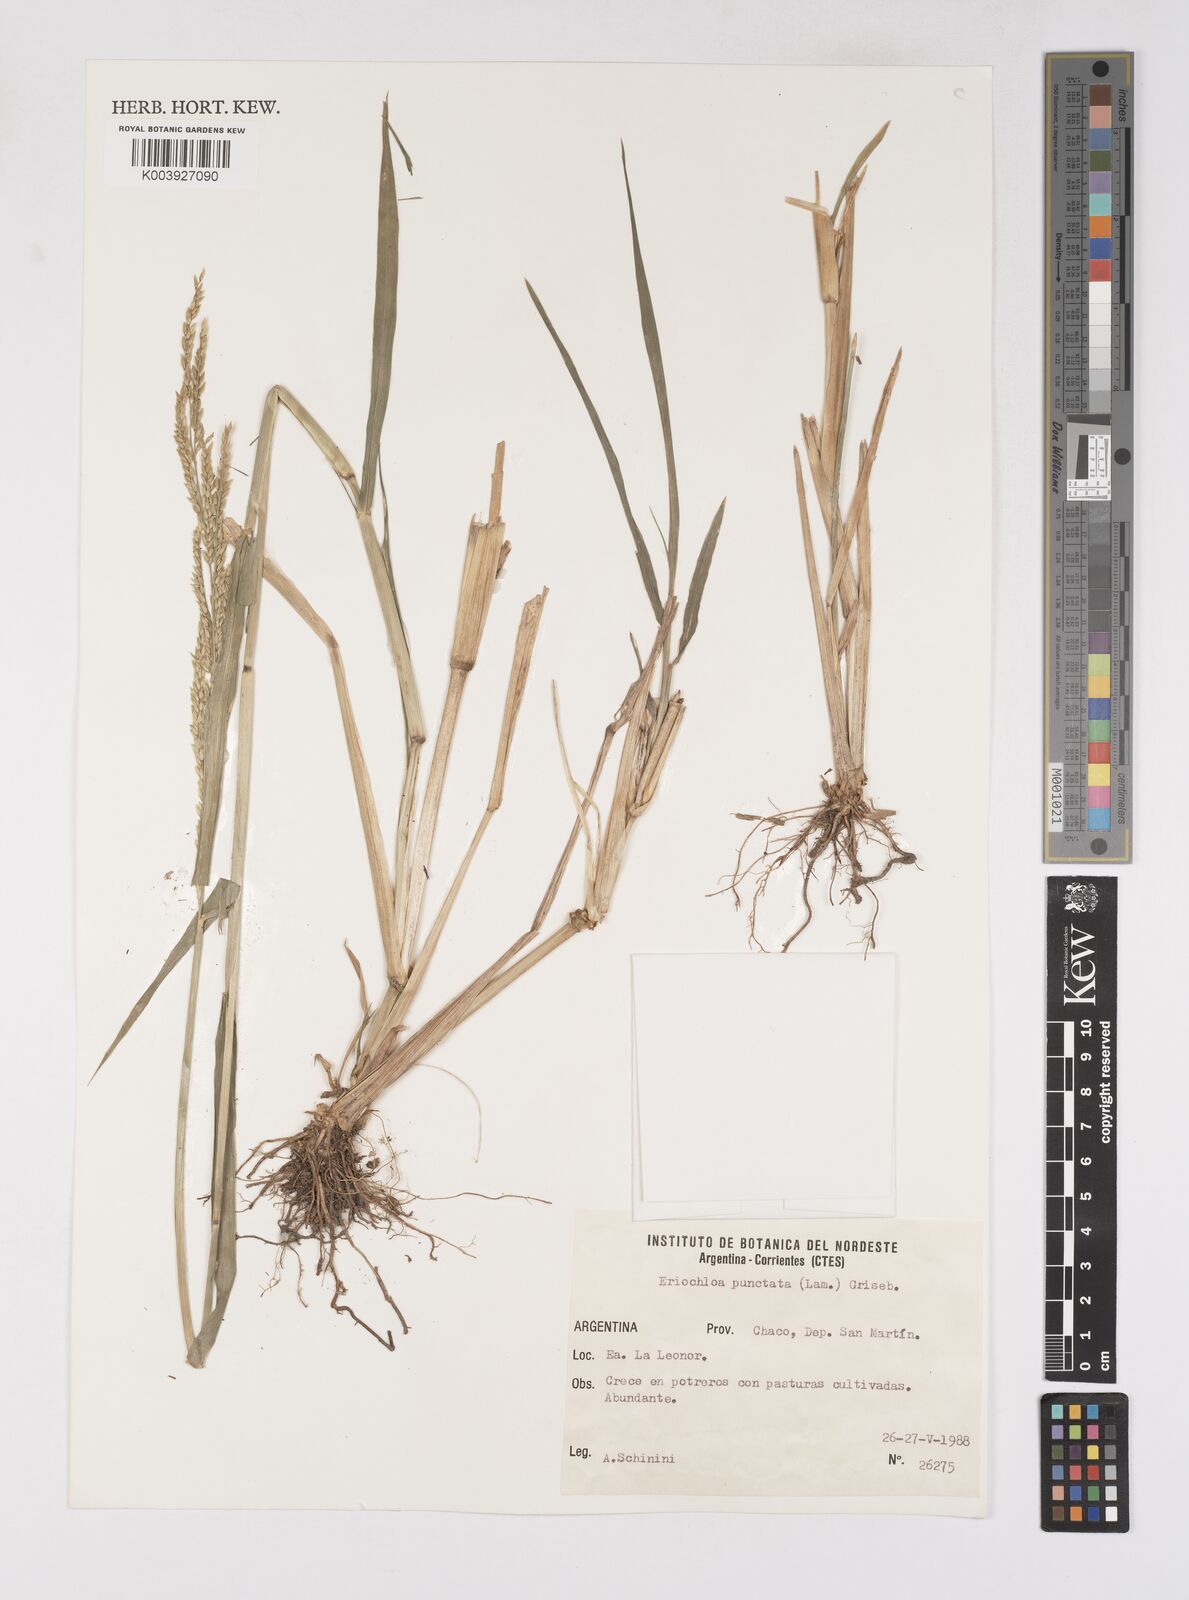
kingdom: Plantae
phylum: Tracheophyta
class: Liliopsida
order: Poales
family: Poaceae
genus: Eriochloa
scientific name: Eriochloa punctata
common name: Louisiana cupgrass
